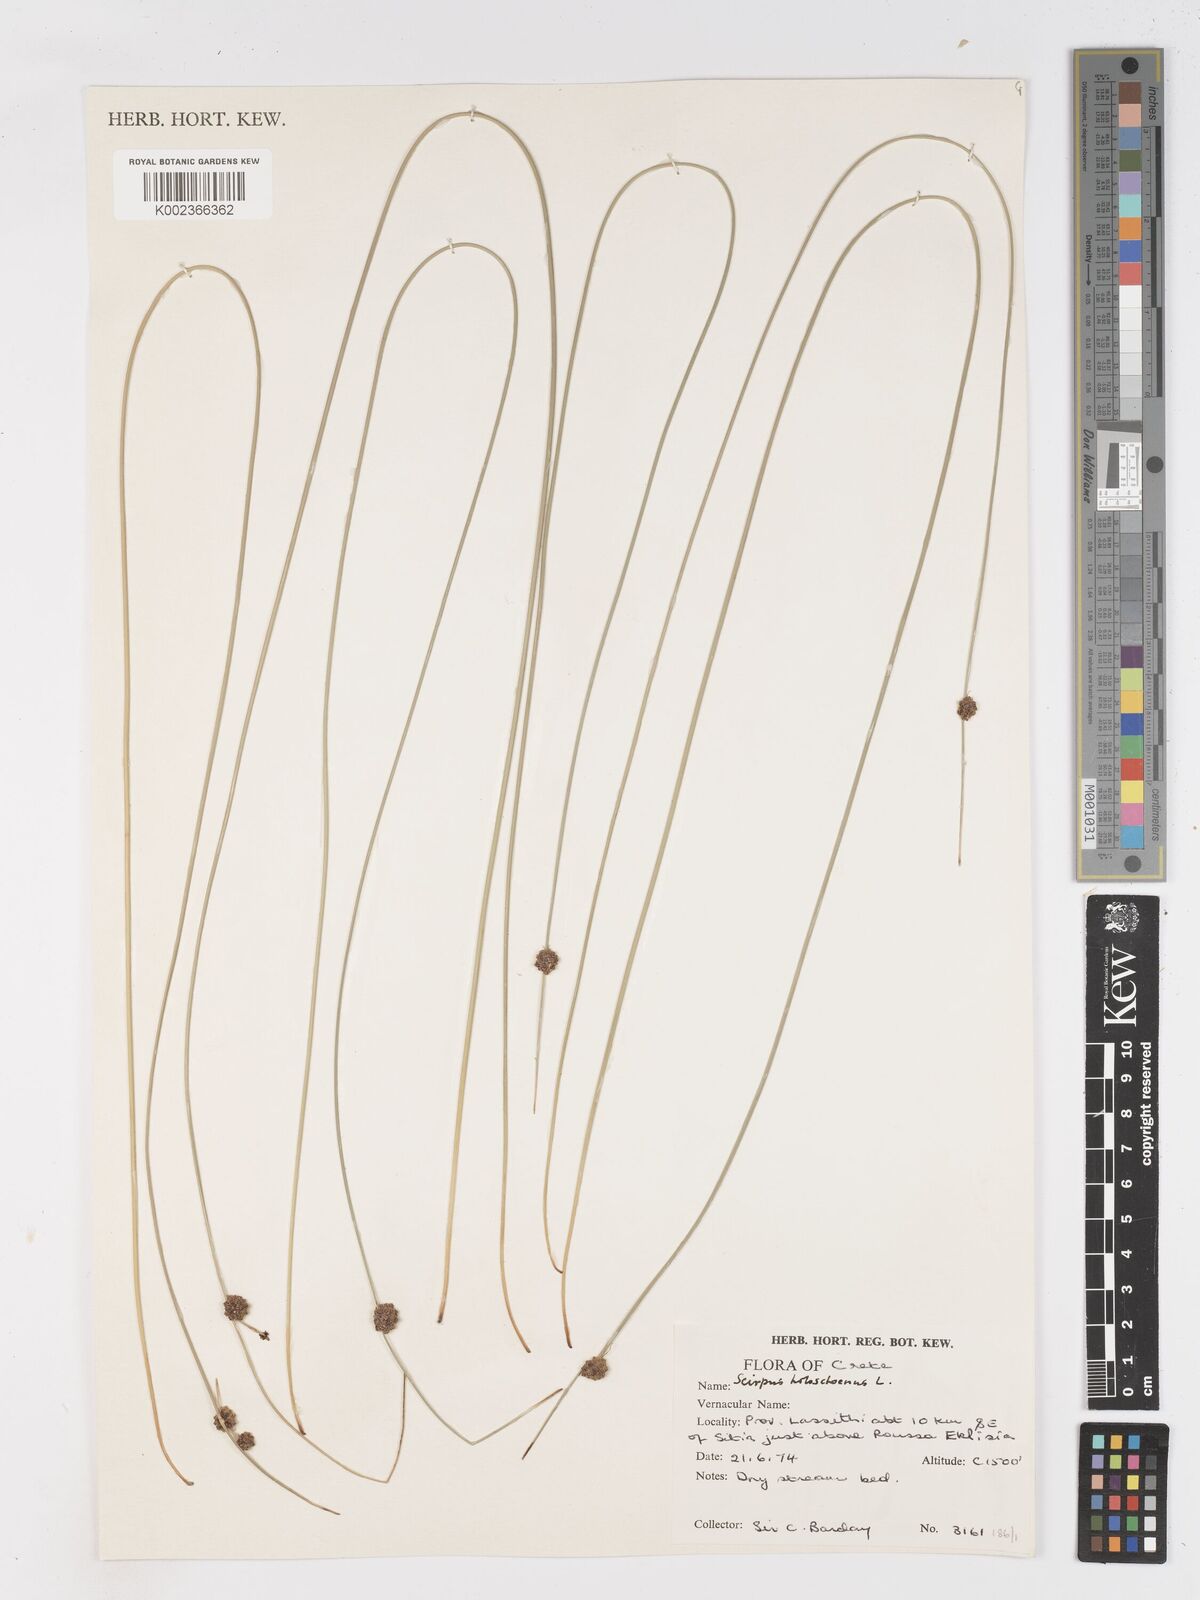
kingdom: Plantae
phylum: Tracheophyta
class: Liliopsida
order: Poales
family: Cyperaceae
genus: Scirpoides
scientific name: Scirpoides holoschoenus
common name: Round-headed club-rush
